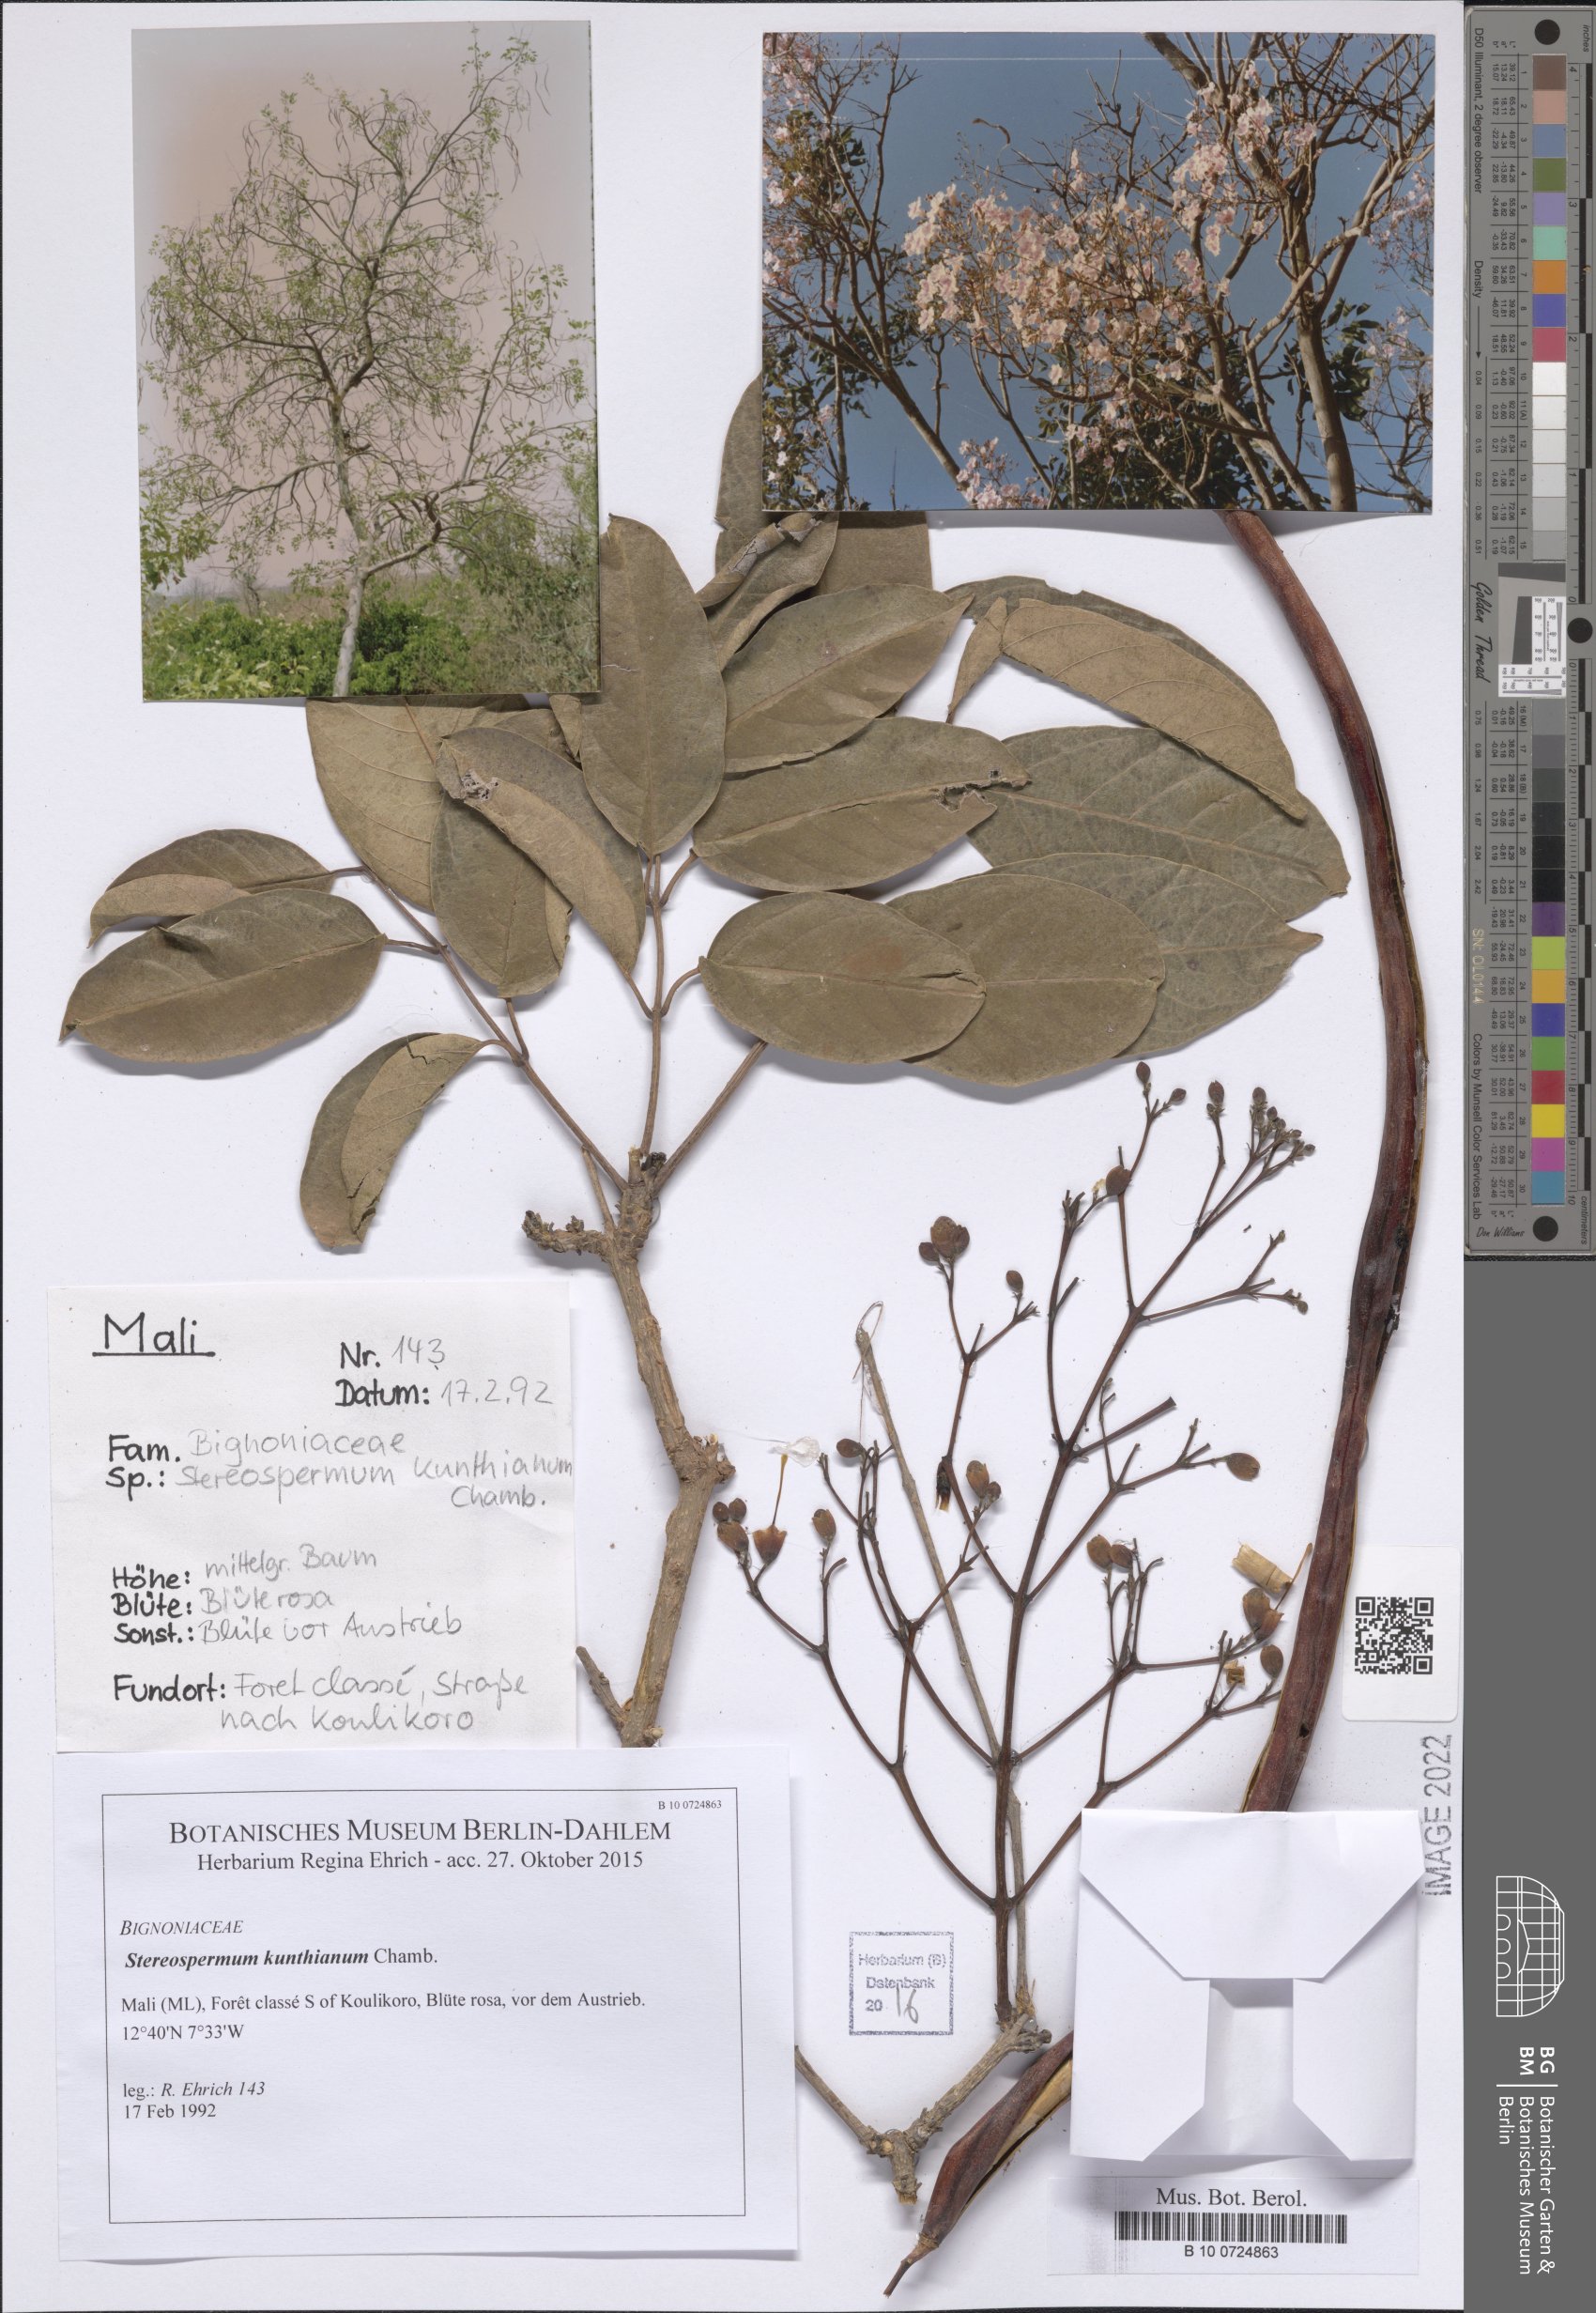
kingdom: Plantae
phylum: Tracheophyta
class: Magnoliopsida
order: Lamiales
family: Bignoniaceae
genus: Stereospermum
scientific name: Stereospermum kunthianum
